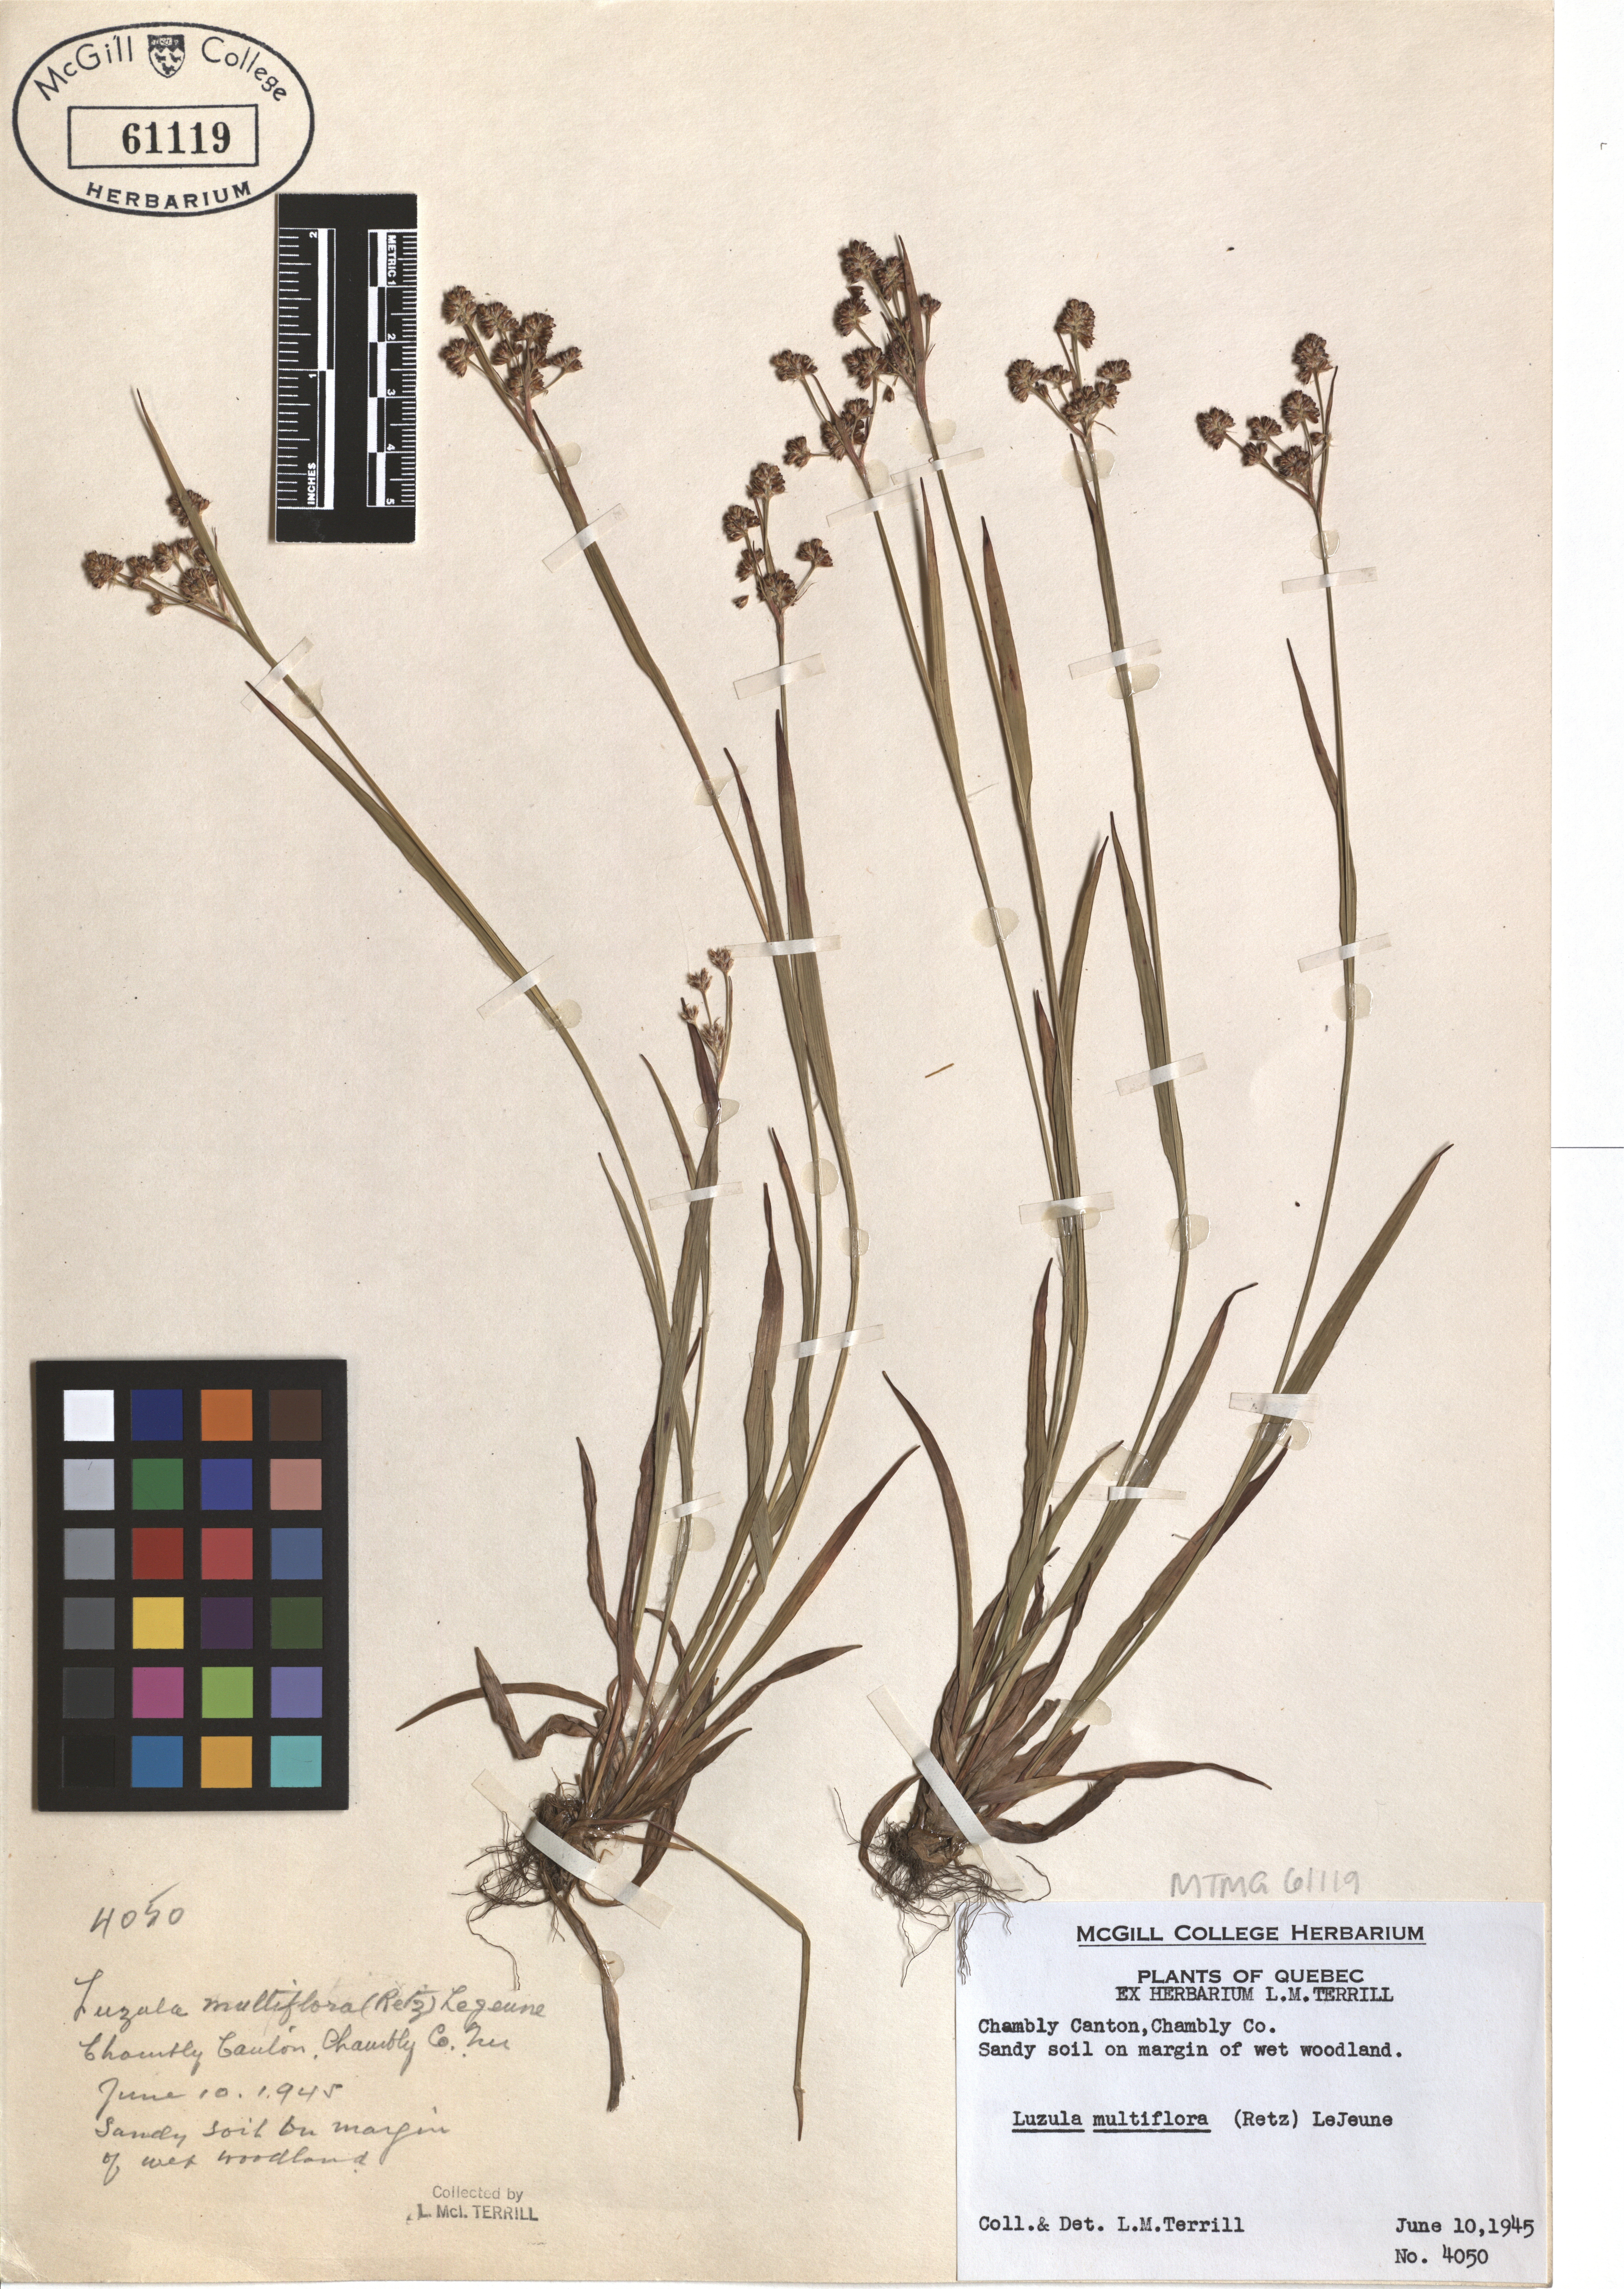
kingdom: Plantae
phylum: Tracheophyta
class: Liliopsida
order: Poales
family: Juncaceae
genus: Luzula
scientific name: Luzula multiflora
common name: Heath wood-rush
